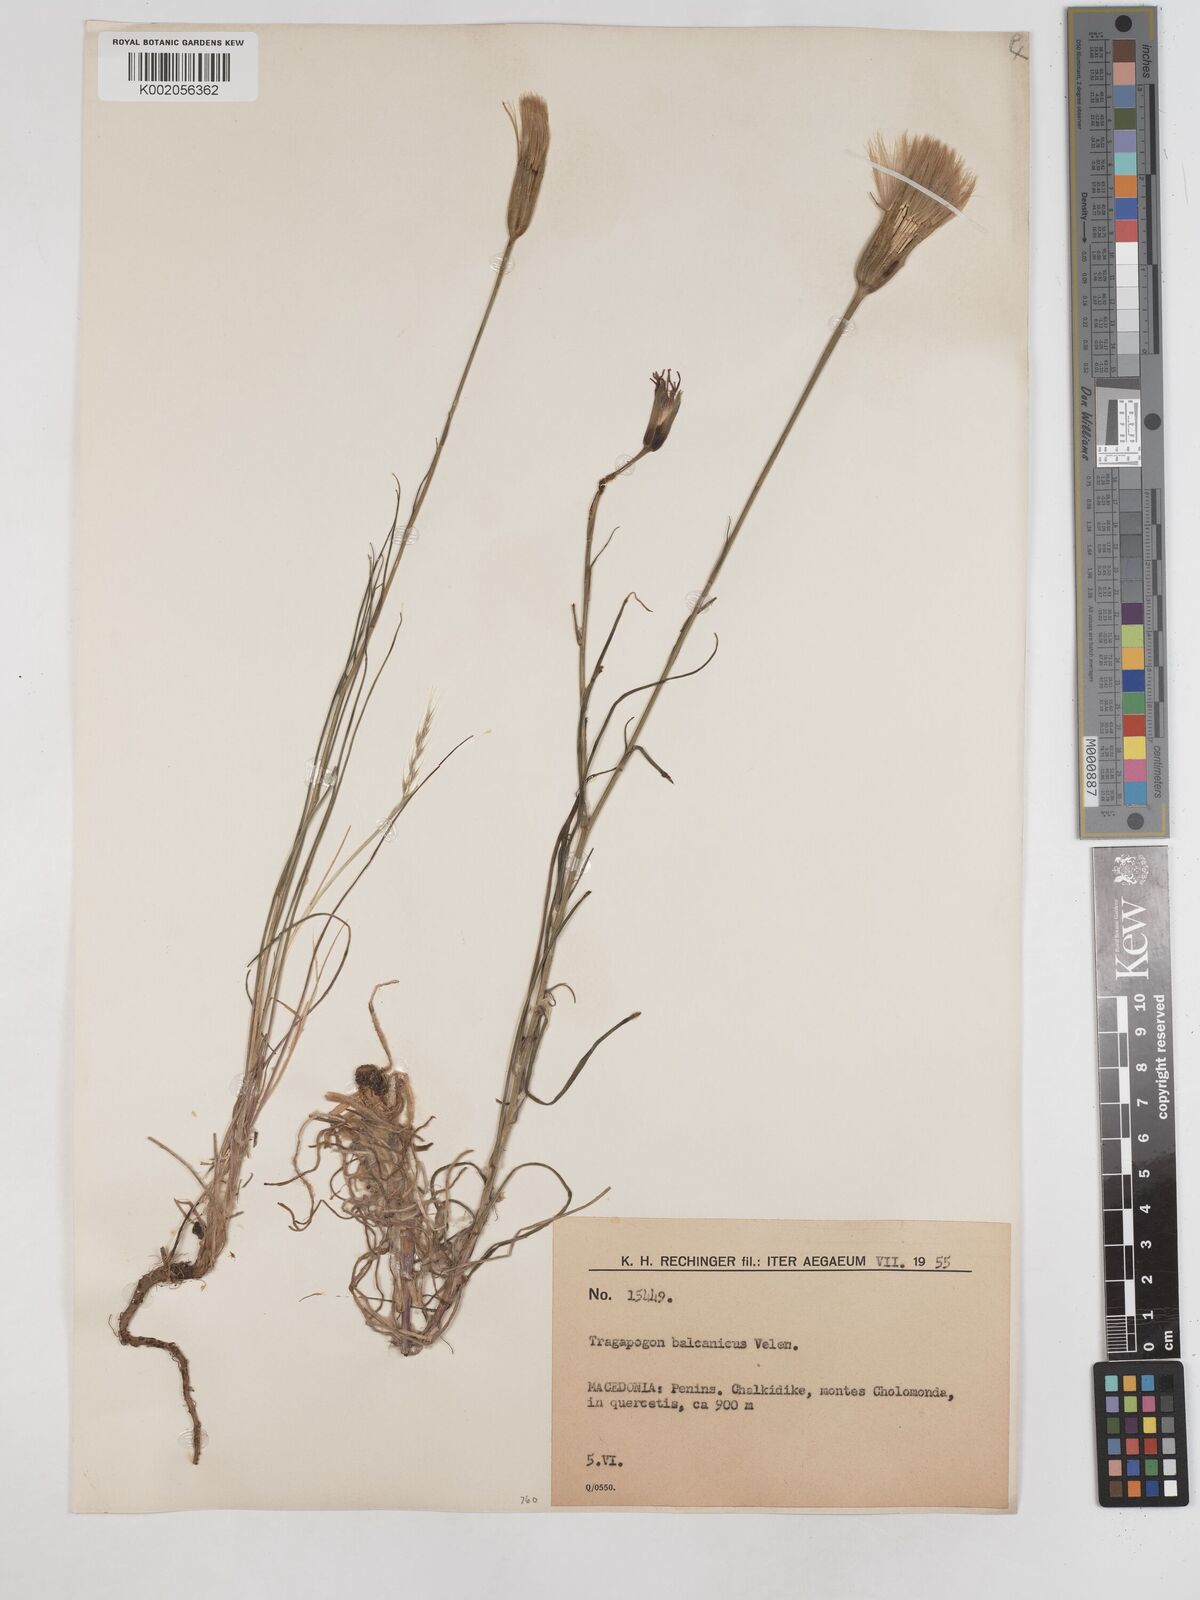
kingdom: Plantae
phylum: Tracheophyta
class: Magnoliopsida
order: Asterales
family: Asteraceae
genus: Tragopogon
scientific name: Tragopogon balcanicus
